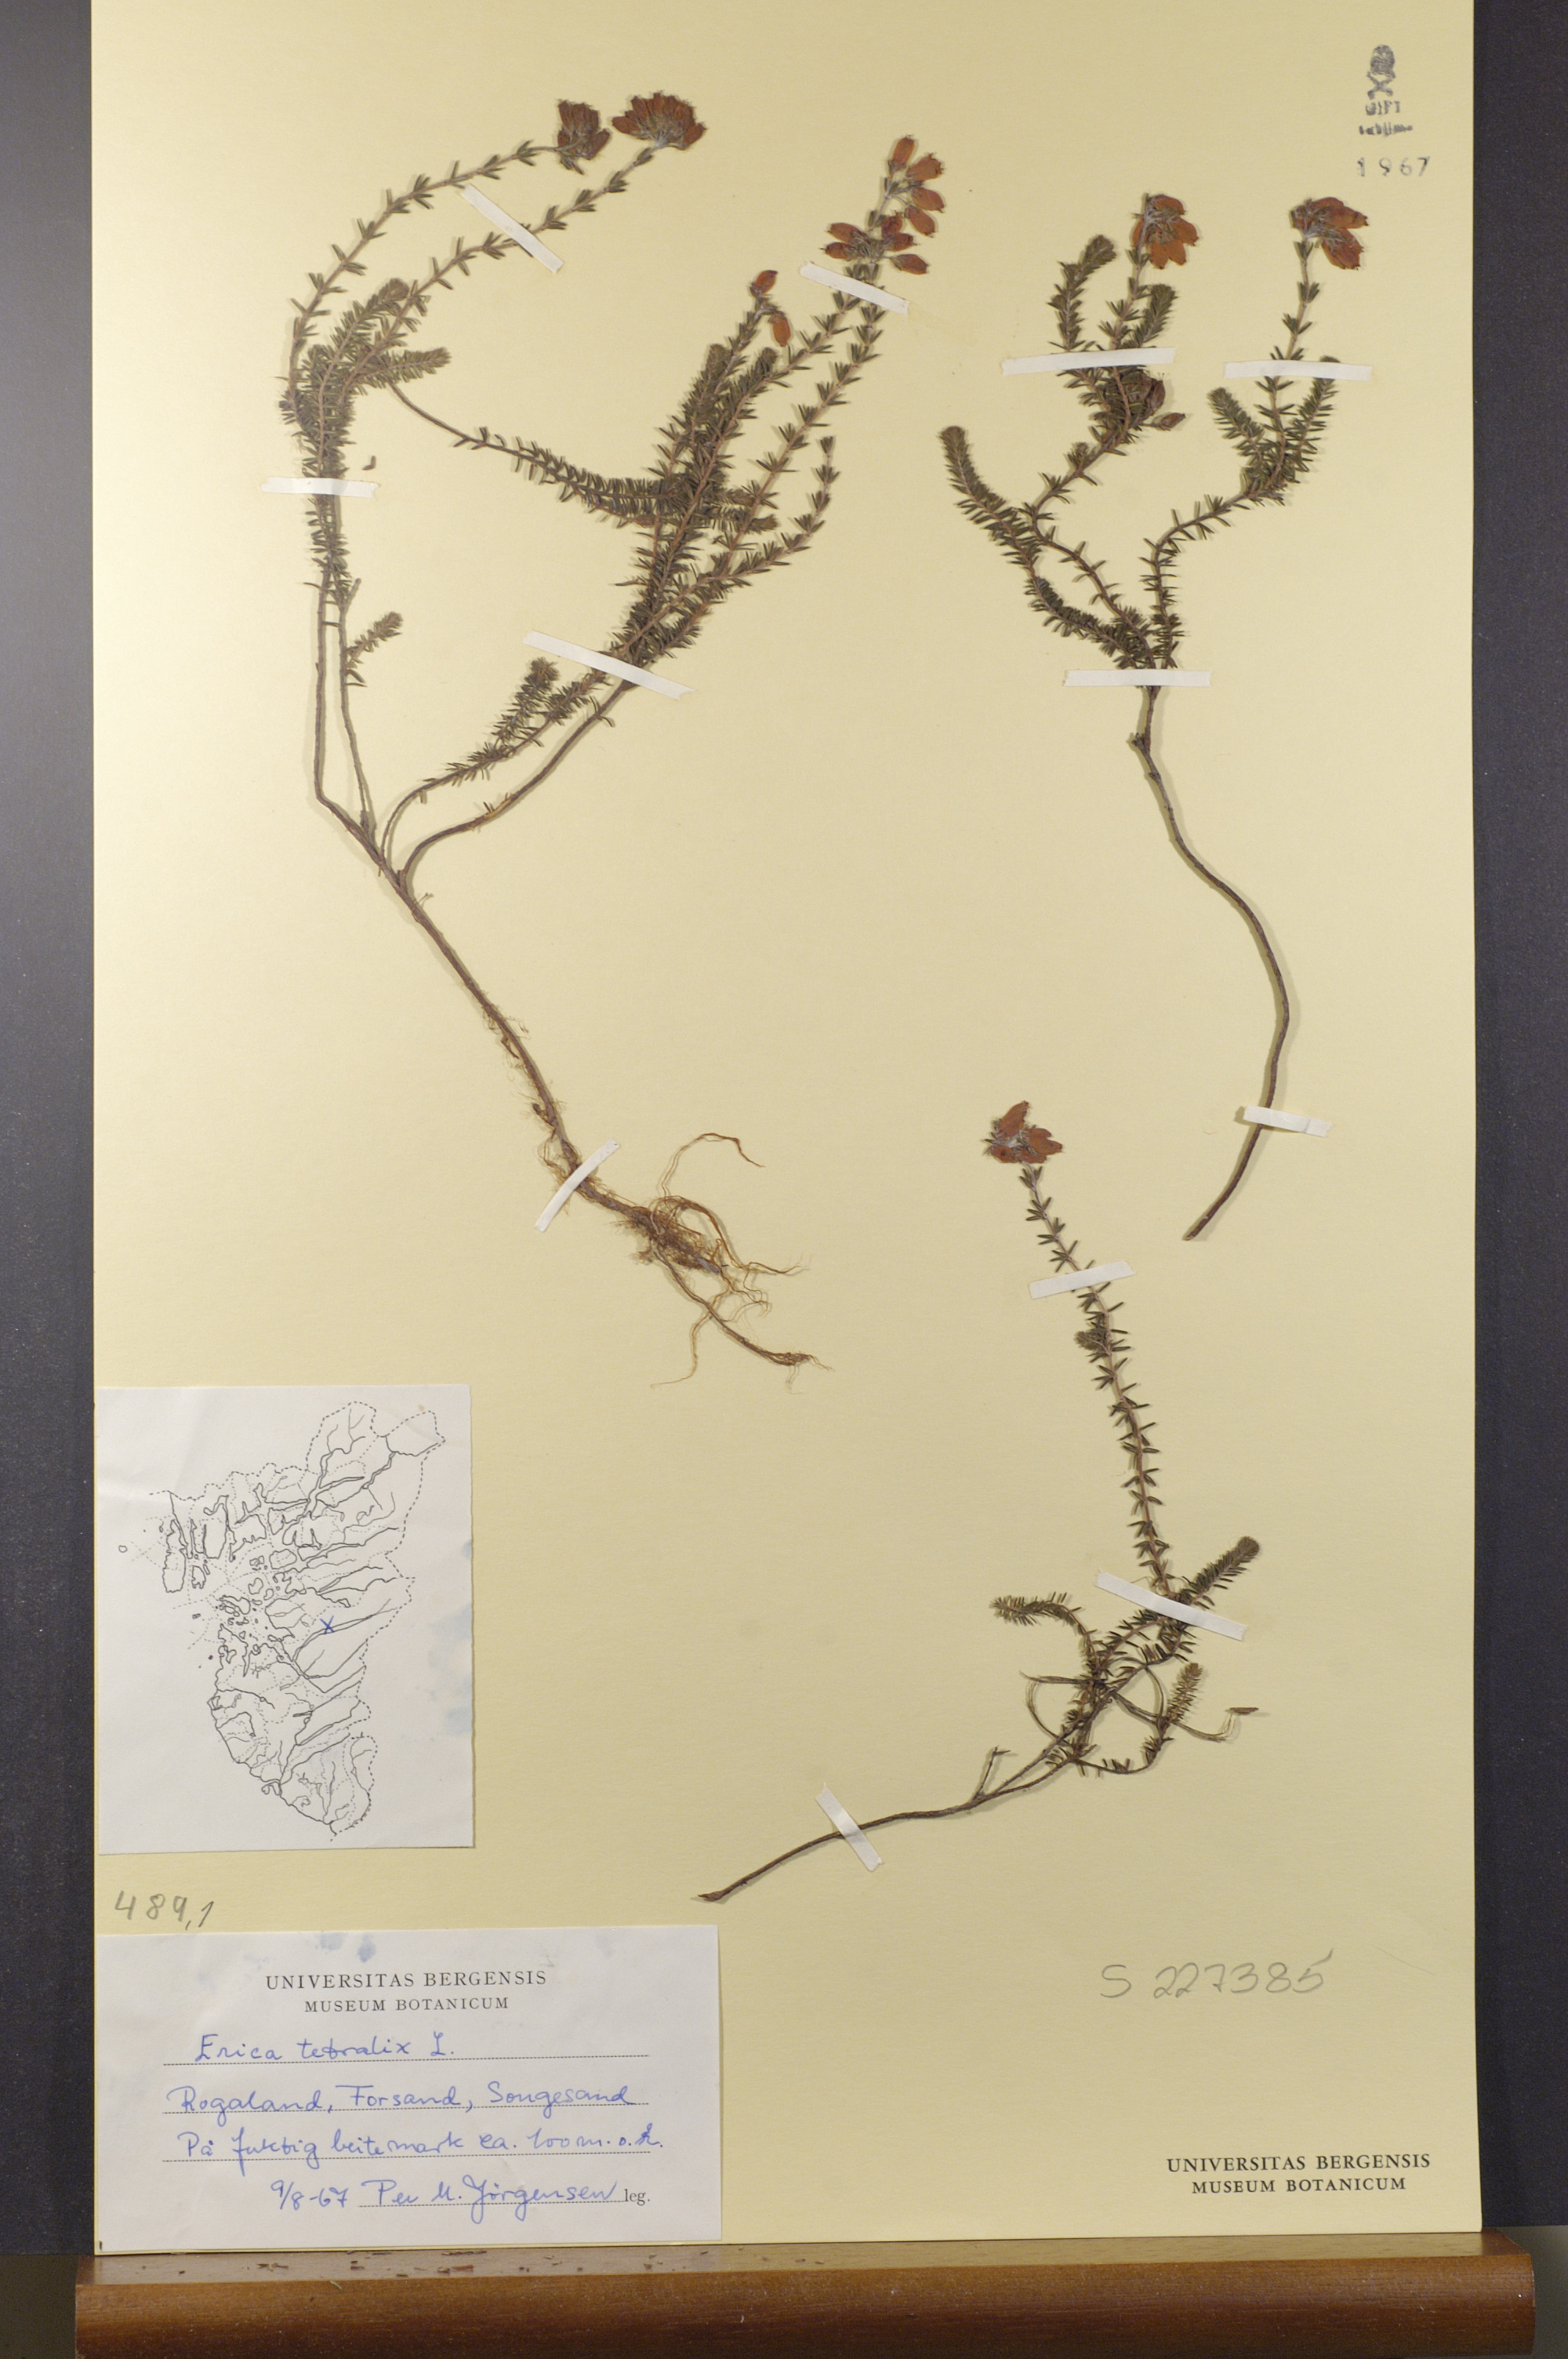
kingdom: Plantae
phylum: Tracheophyta
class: Magnoliopsida
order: Ericales
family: Ericaceae
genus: Erica
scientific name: Erica tetralix
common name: Cross-leaved heath
